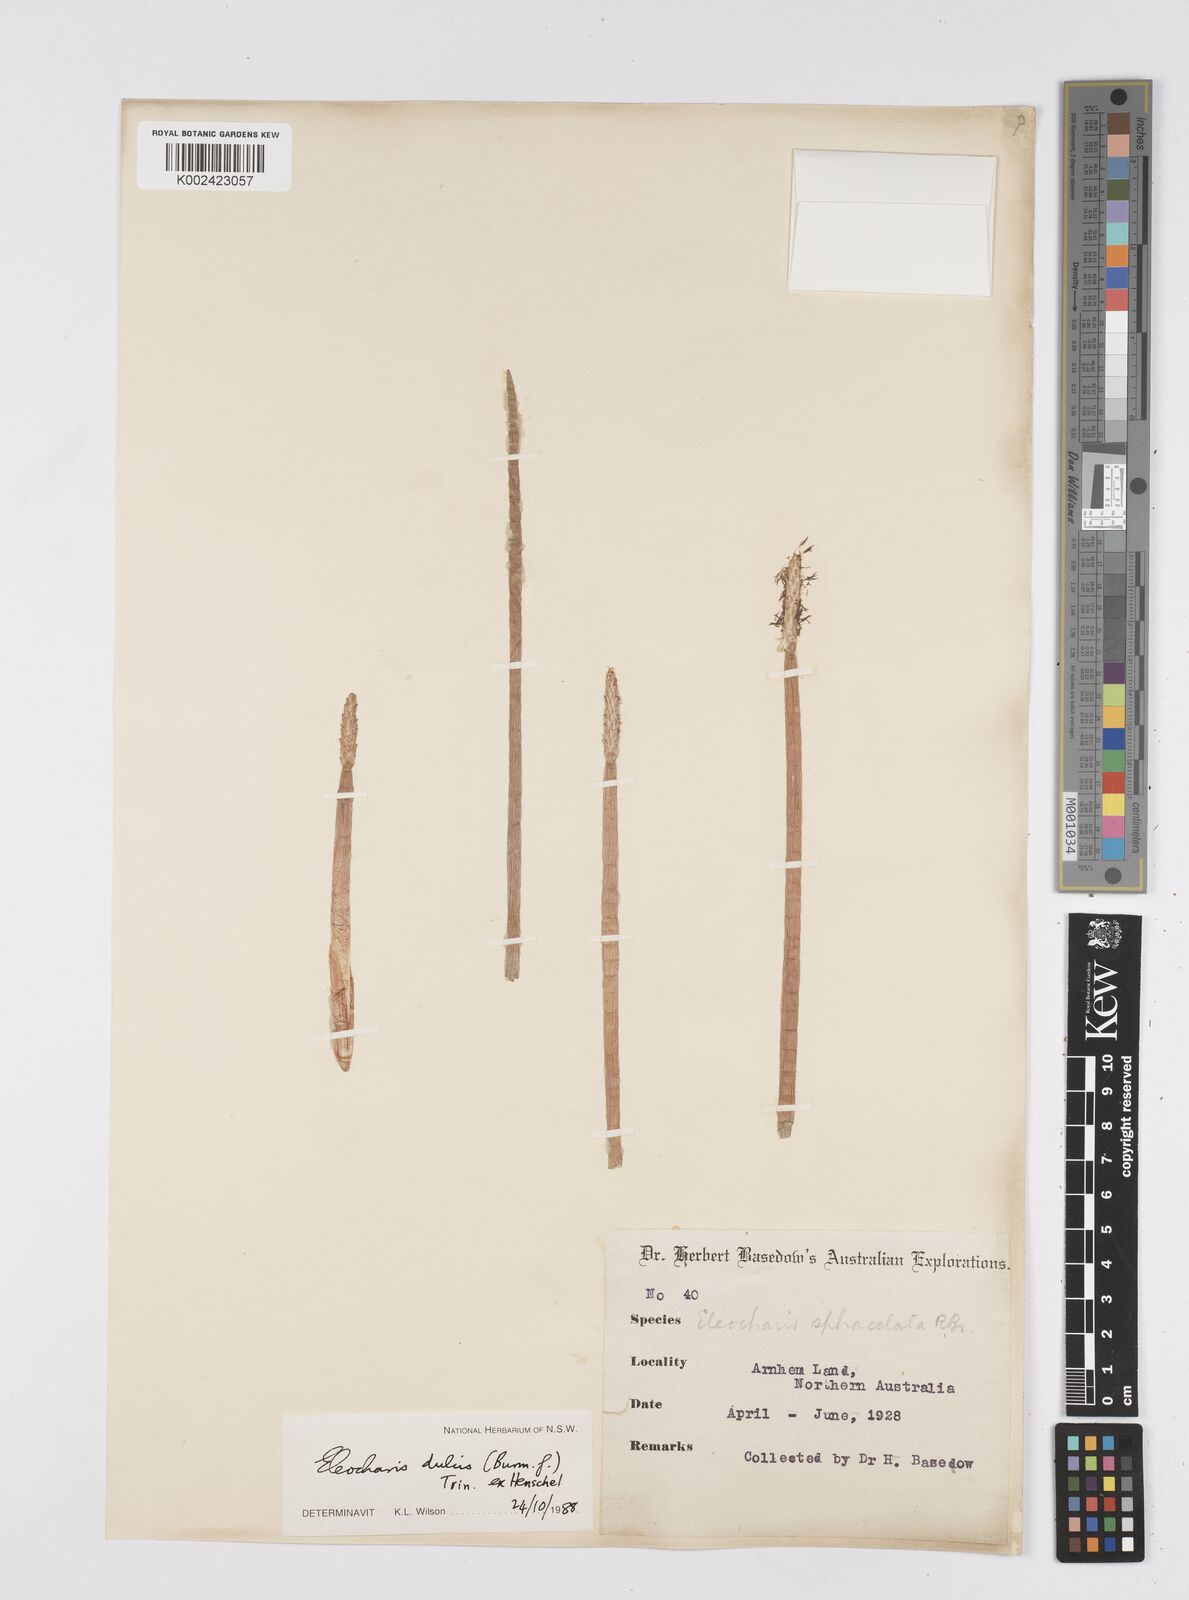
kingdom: Plantae
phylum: Tracheophyta
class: Liliopsida
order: Poales
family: Cyperaceae
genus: Eleocharis
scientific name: Eleocharis dulcis
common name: Chinese water chestnut
